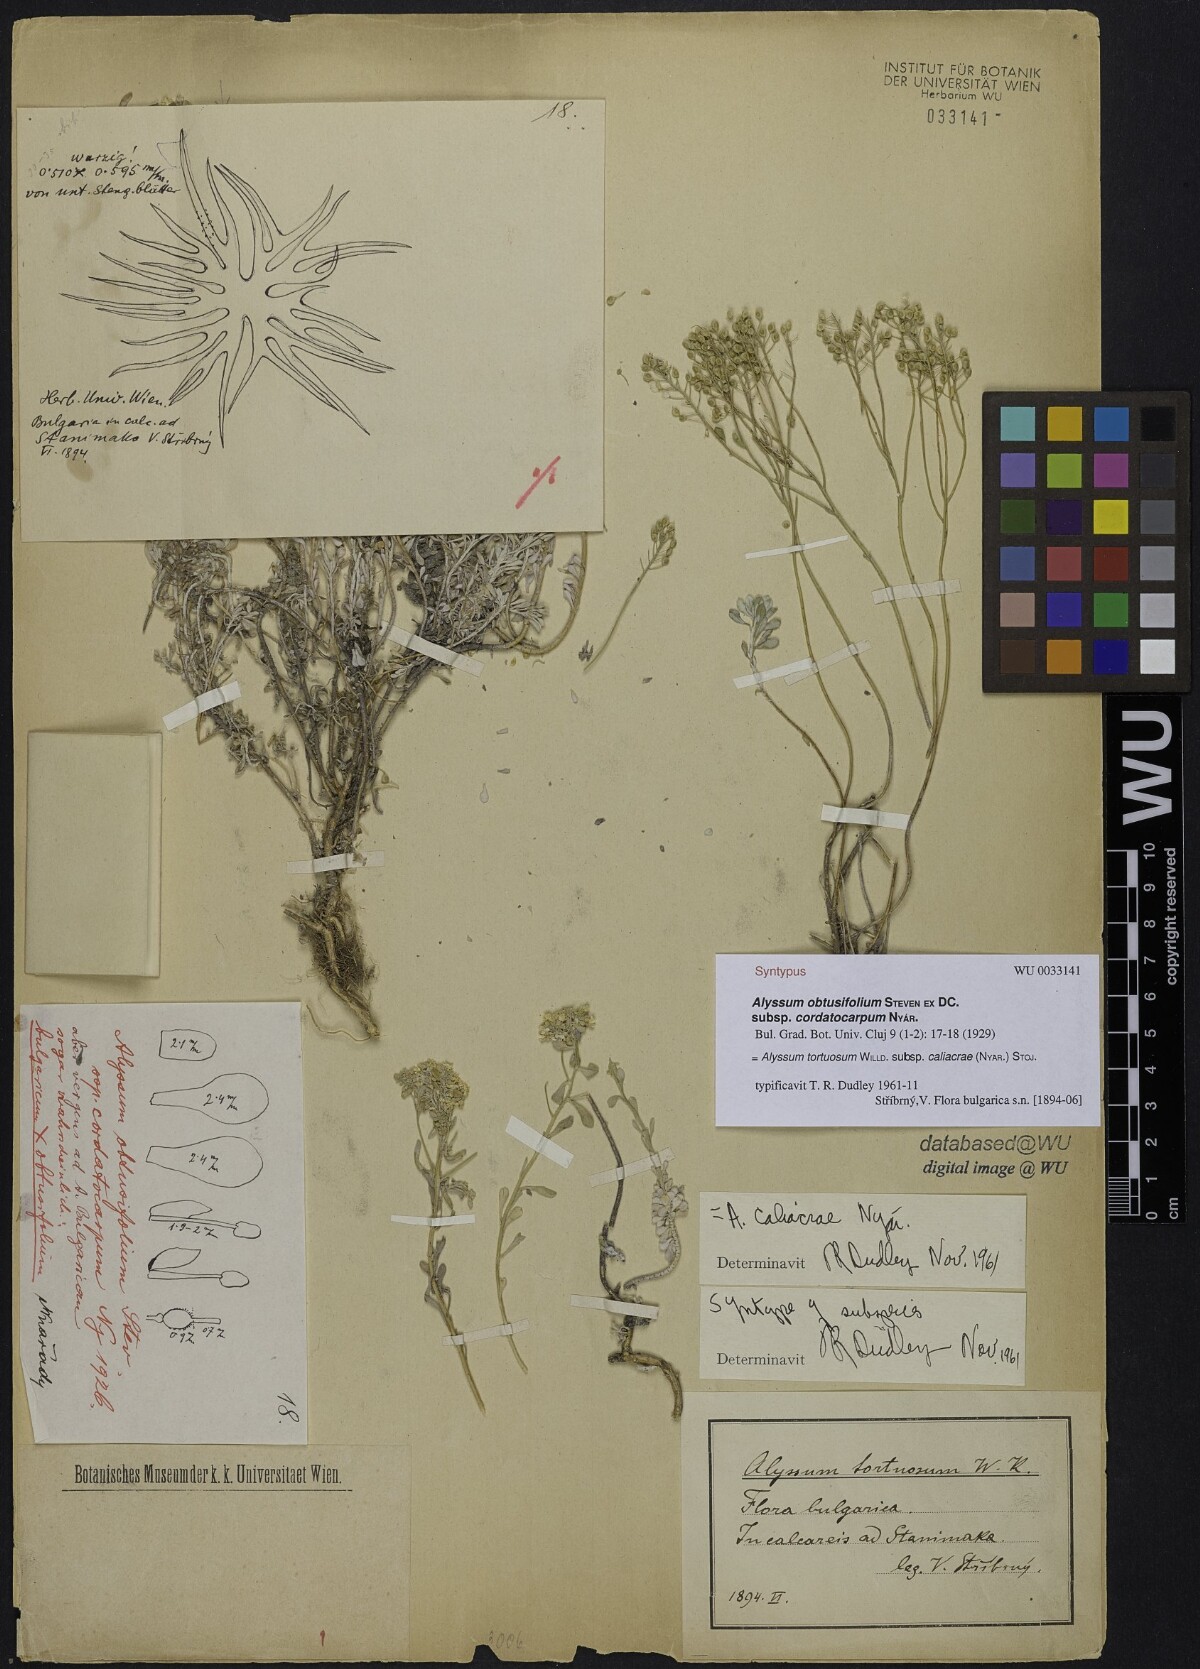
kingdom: Plantae
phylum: Tracheophyta
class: Magnoliopsida
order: Brassicales
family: Brassicaceae
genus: Odontarrhena
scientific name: Odontarrhena obtusifolia
